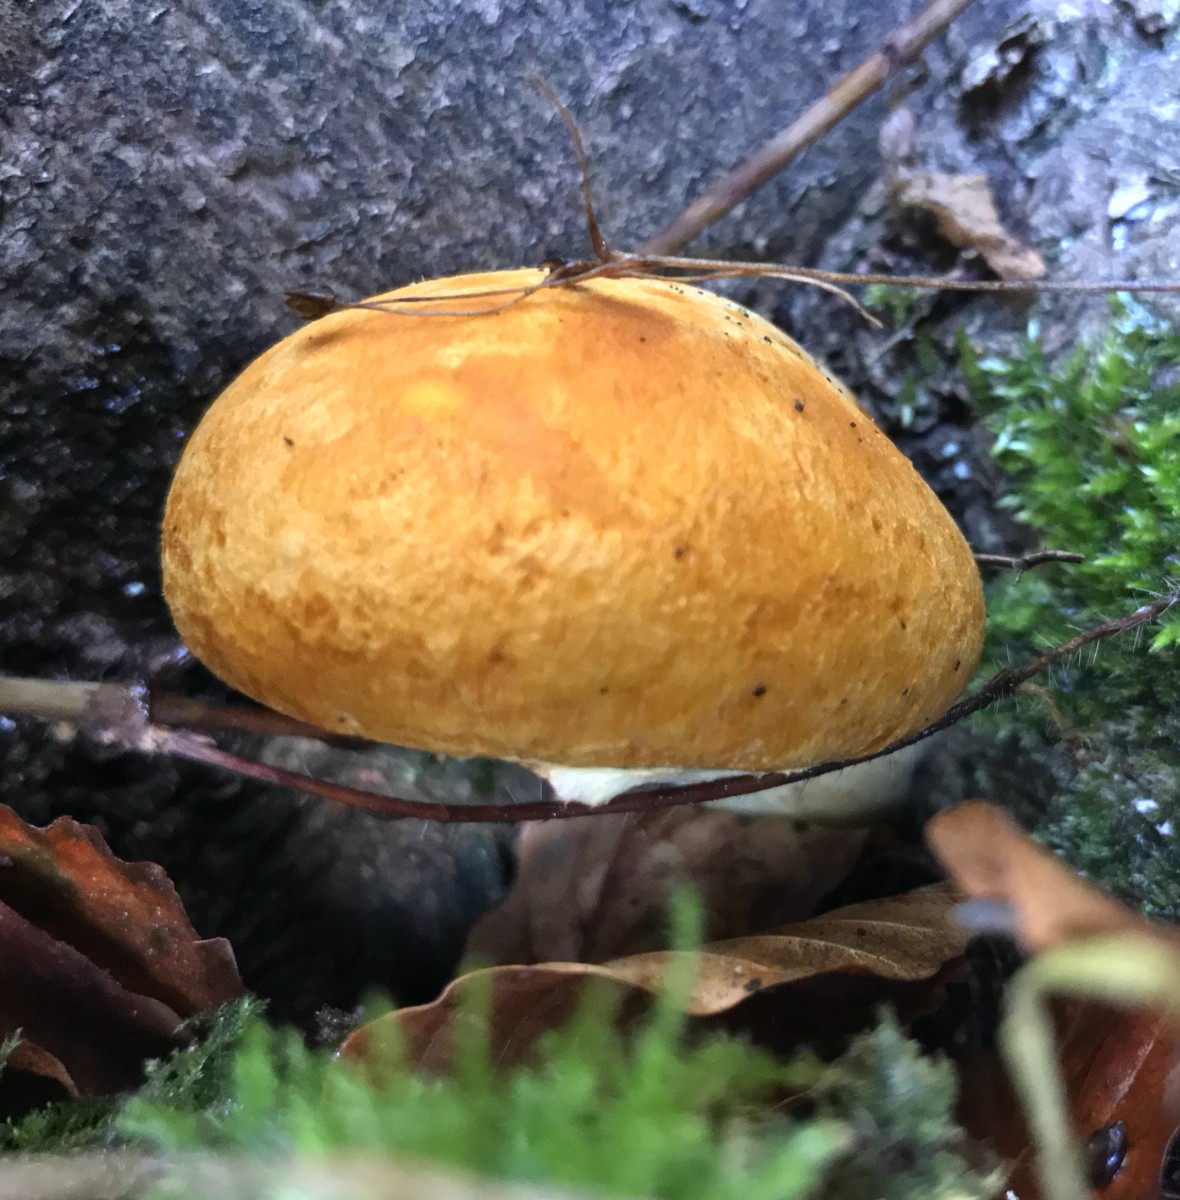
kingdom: Fungi
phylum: Basidiomycota
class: Agaricomycetes
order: Agaricales
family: Hymenogastraceae
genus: Gymnopilus
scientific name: Gymnopilus spectabilis
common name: fibret flammehat
